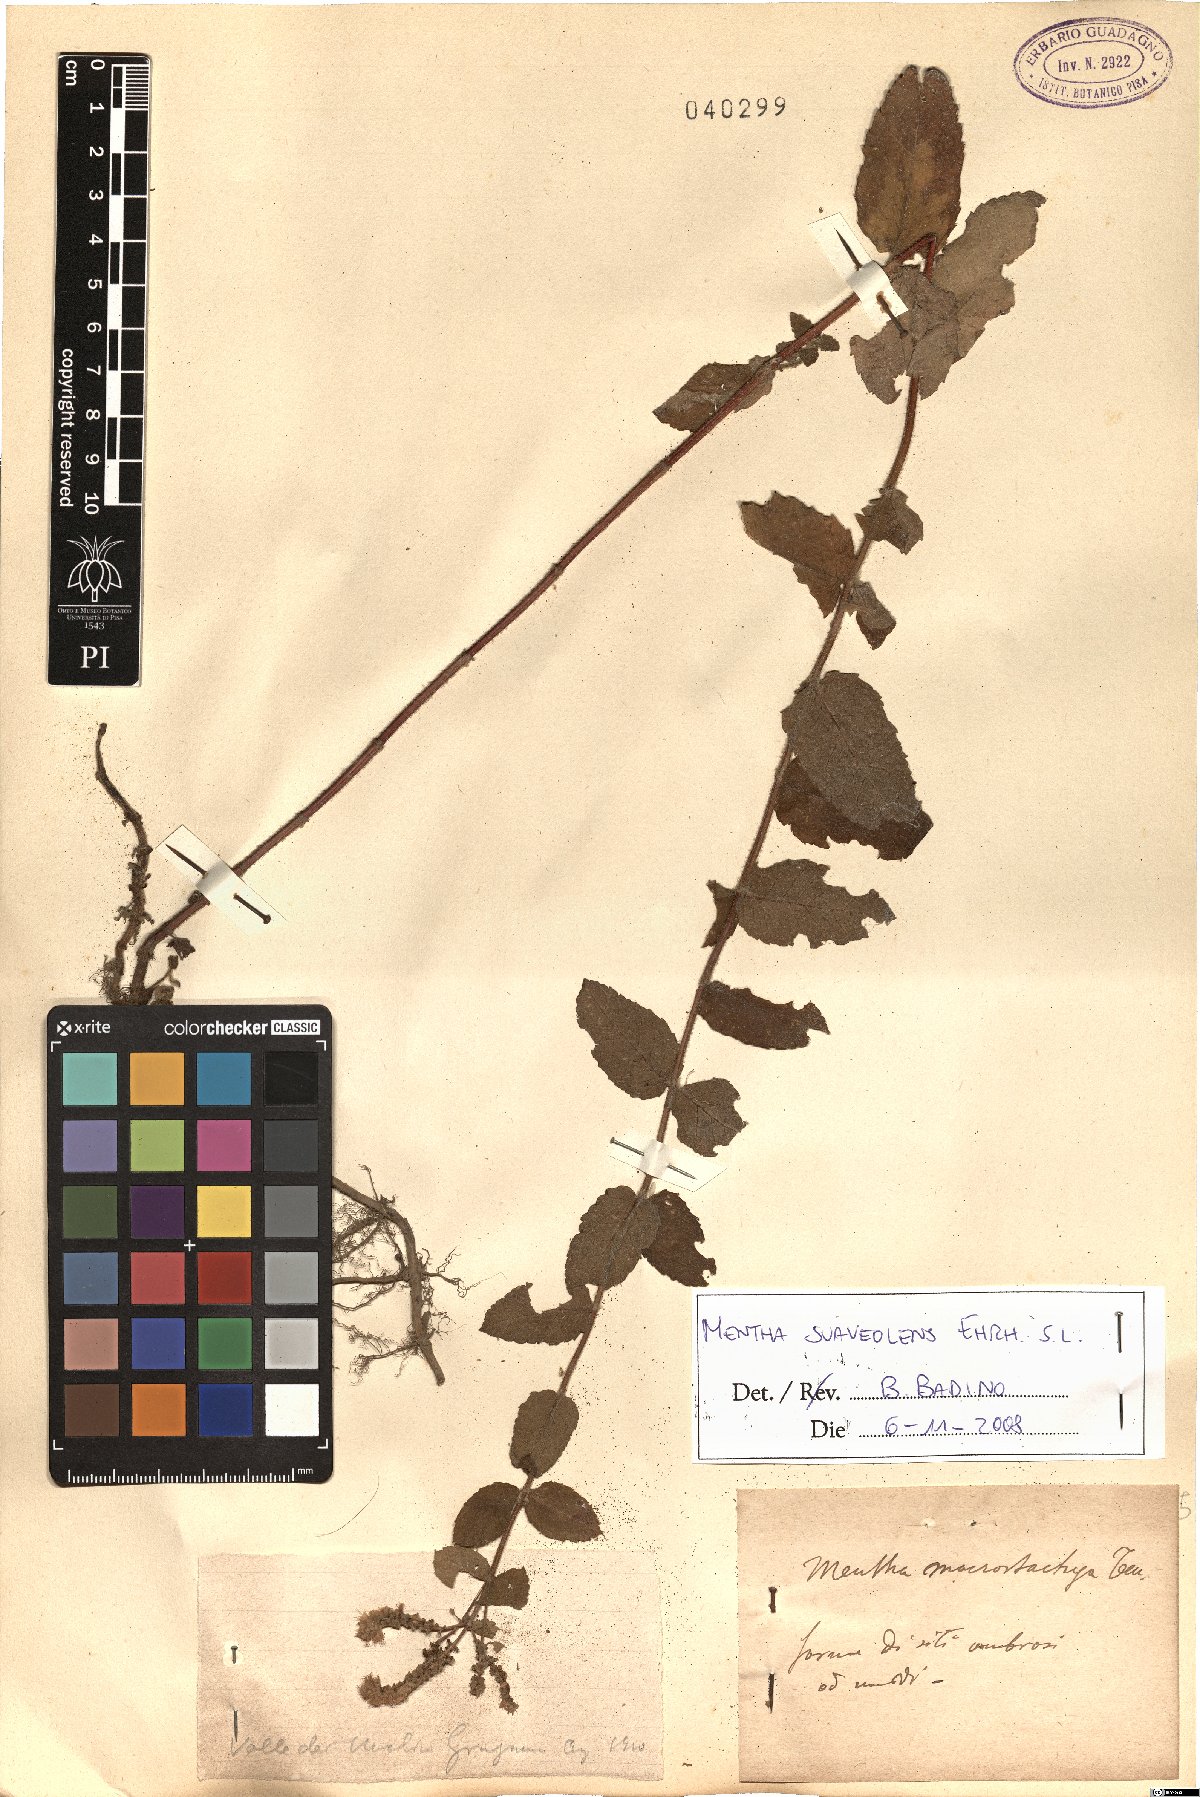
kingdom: Plantae
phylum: Tracheophyta
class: Magnoliopsida
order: Lamiales
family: Lamiaceae
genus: Mentha
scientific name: Mentha suaveolens
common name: Apple mint
